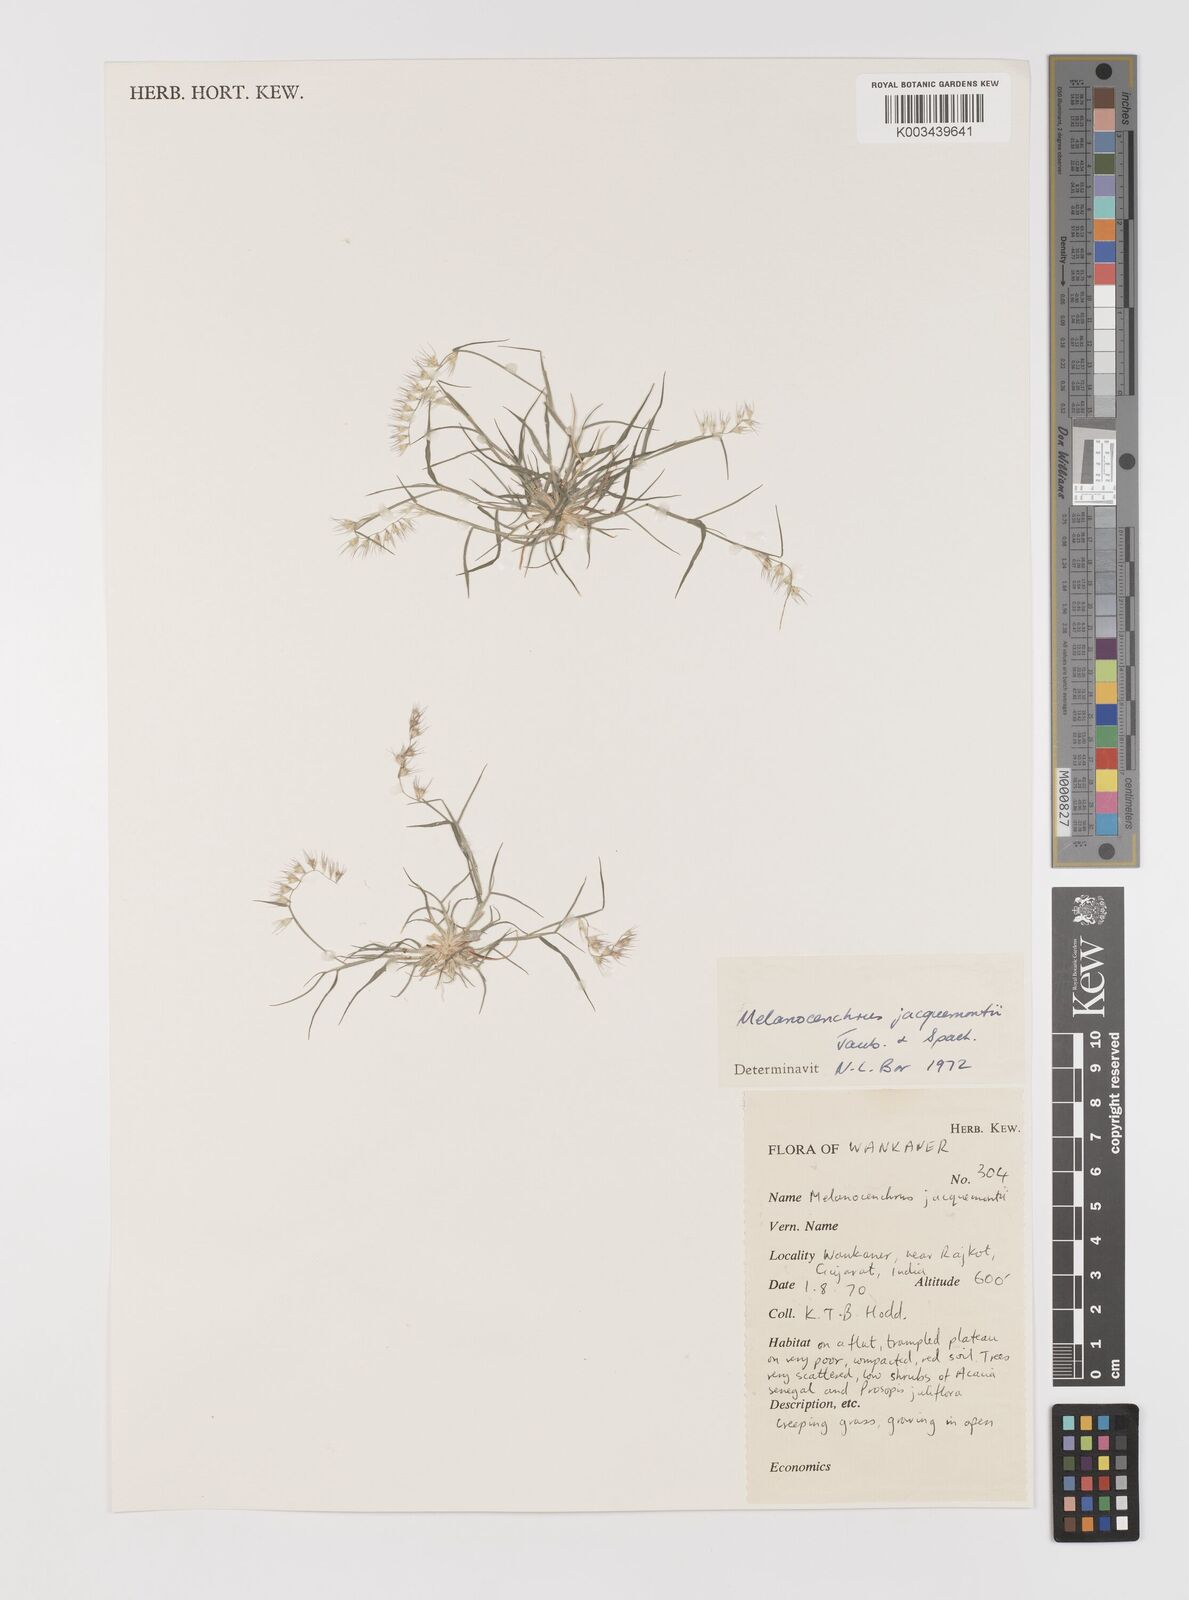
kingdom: Plantae
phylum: Tracheophyta
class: Liliopsida
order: Poales
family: Poaceae
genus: Melanocenchris
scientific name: Melanocenchris jacquemontii
